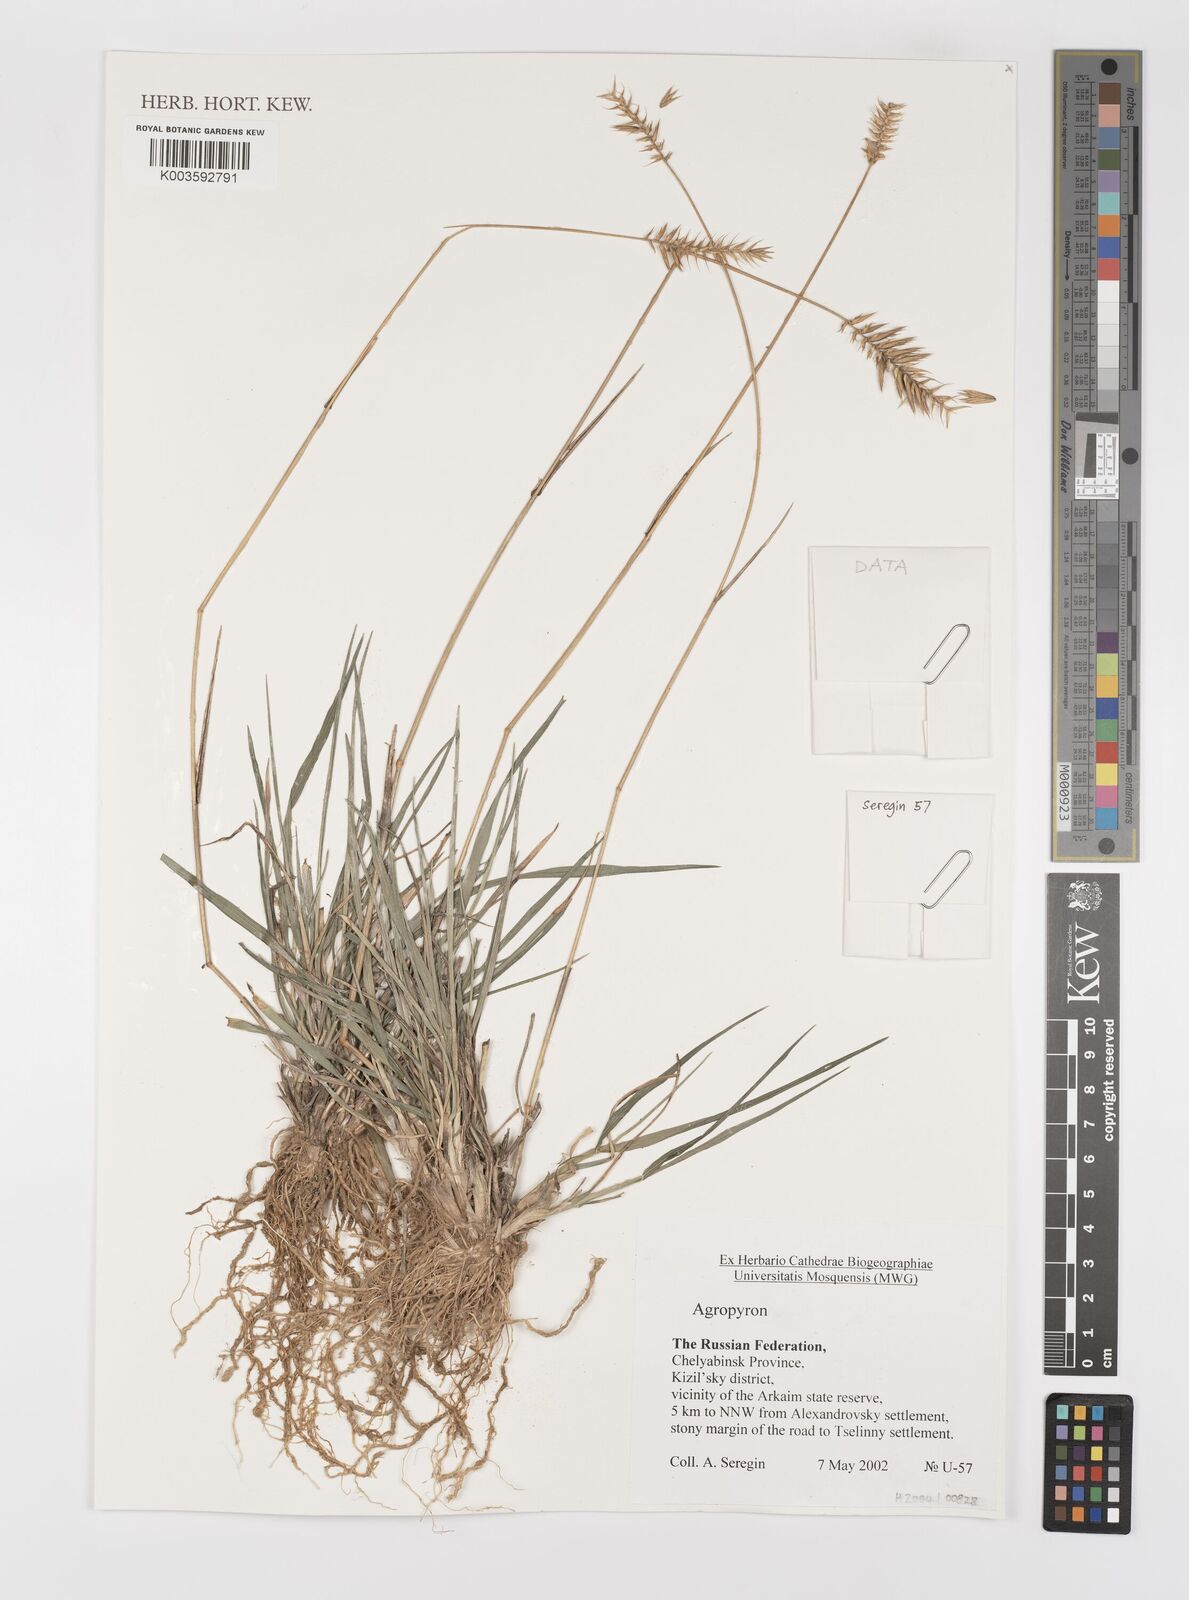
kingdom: Plantae
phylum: Tracheophyta
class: Liliopsida
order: Poales
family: Poaceae
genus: Agropyron
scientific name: Agropyron
